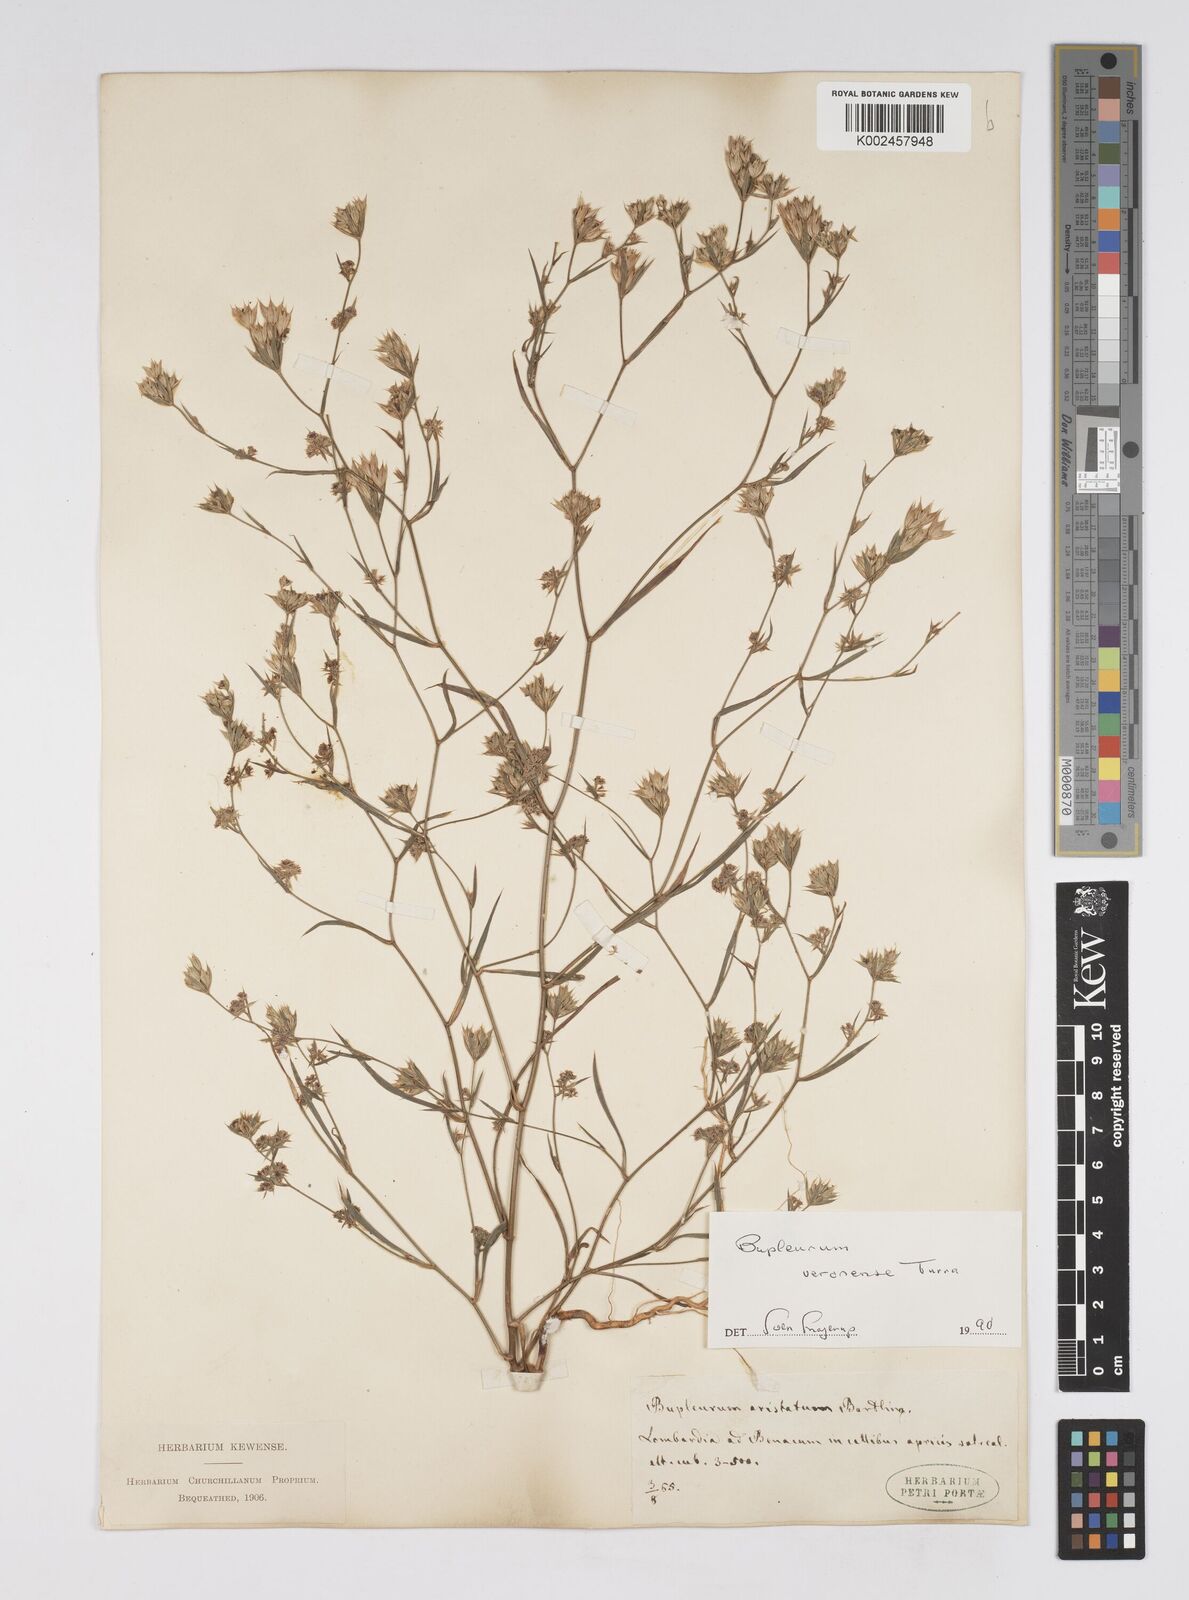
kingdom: Plantae
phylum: Tracheophyta
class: Magnoliopsida
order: Apiales
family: Apiaceae
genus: Bupleurum
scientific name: Bupleurum glumaceum
